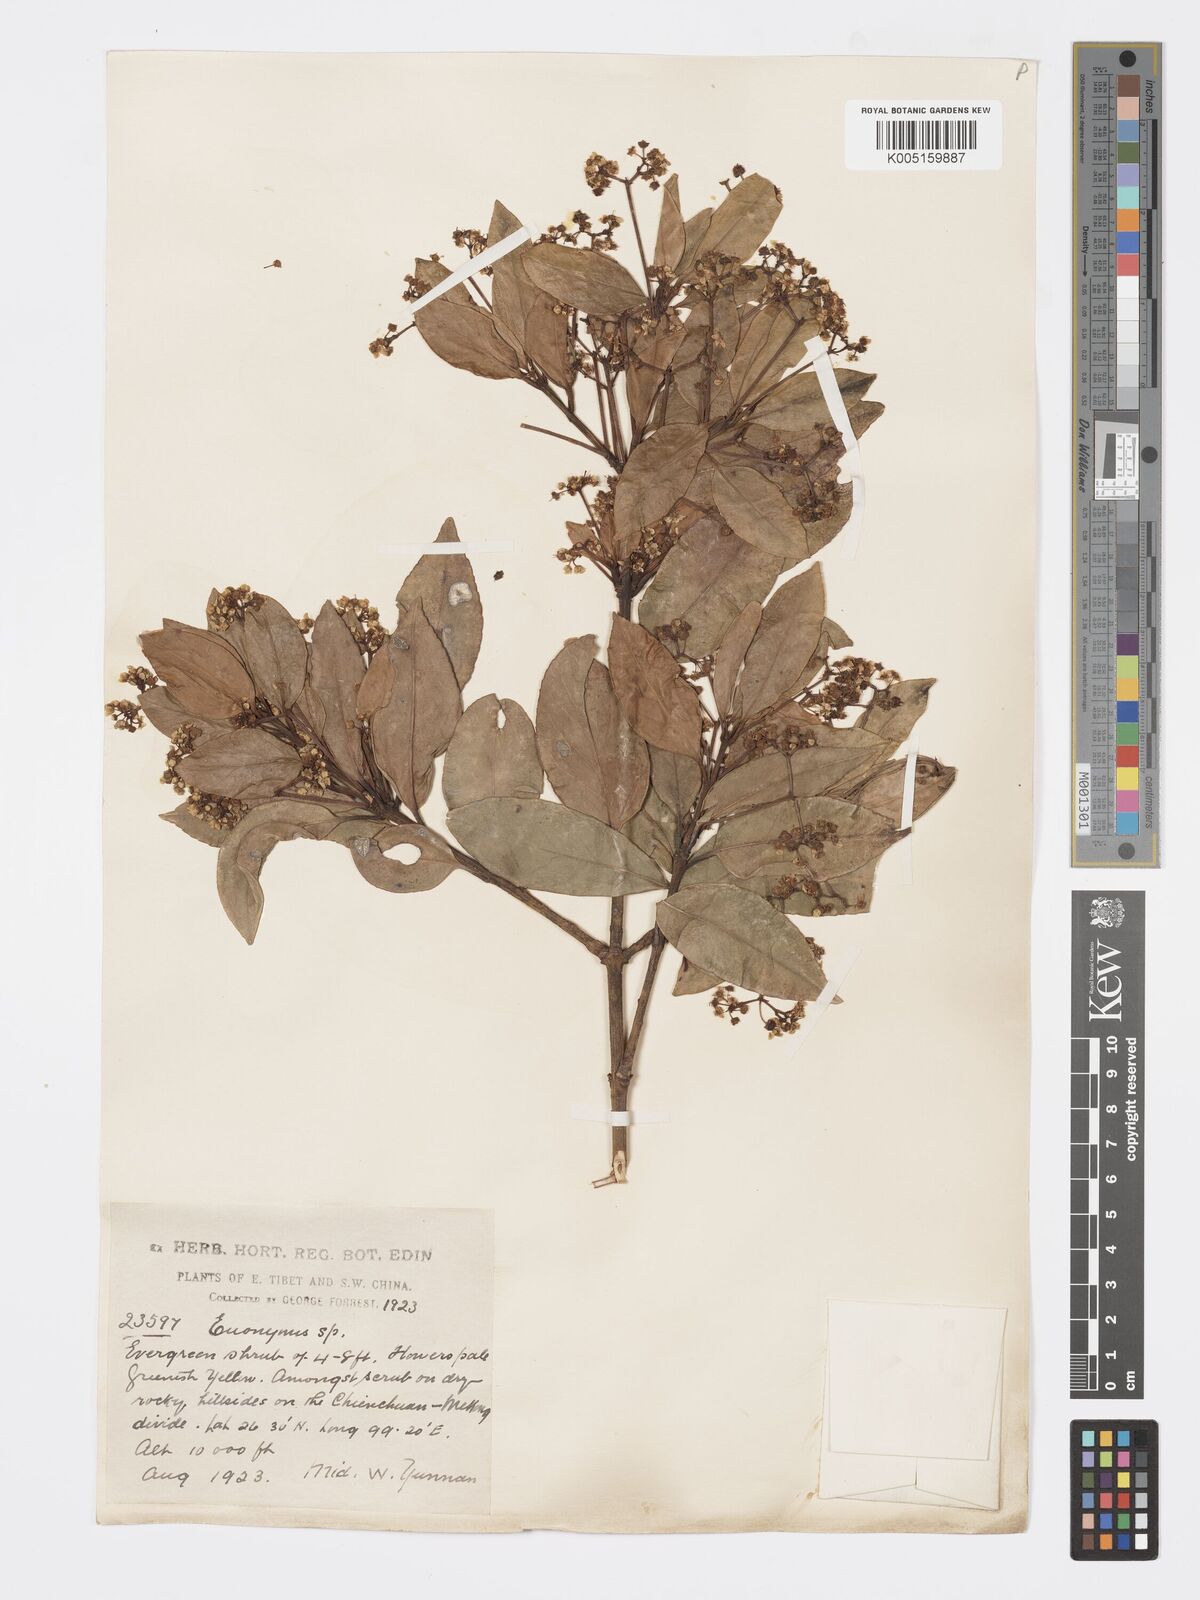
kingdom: Plantae
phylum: Tracheophyta
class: Magnoliopsida
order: Celastrales
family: Celastraceae
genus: Euonymus
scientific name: Euonymus acanthocarpus
